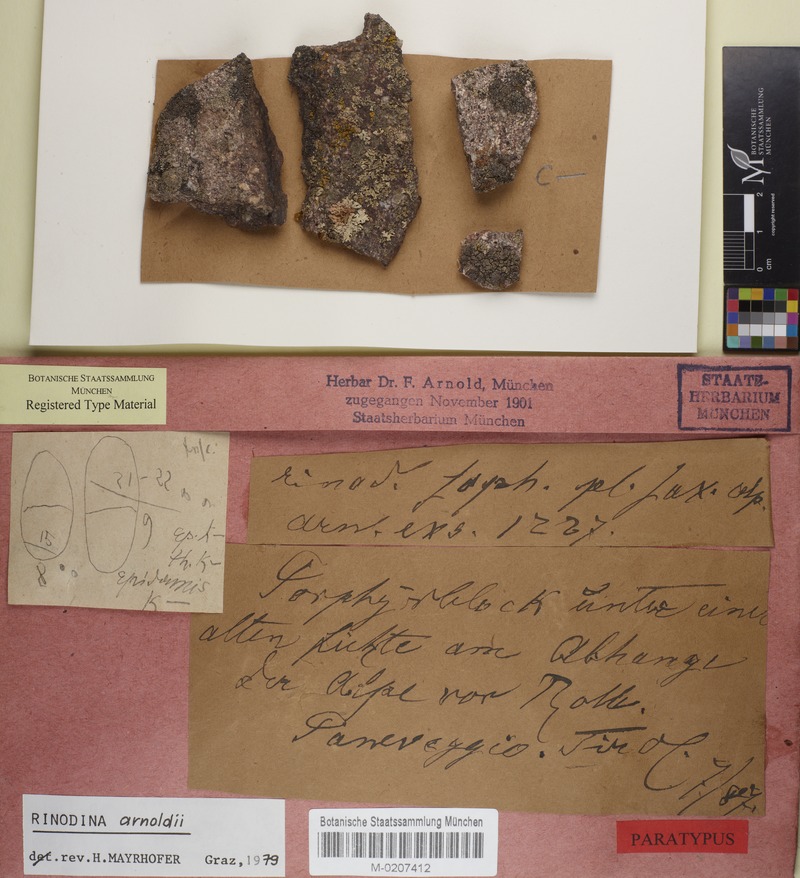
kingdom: Fungi
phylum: Ascomycota
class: Lecanoromycetes
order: Caliciales
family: Physciaceae
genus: Rinodina
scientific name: Rinodina arnoldii
